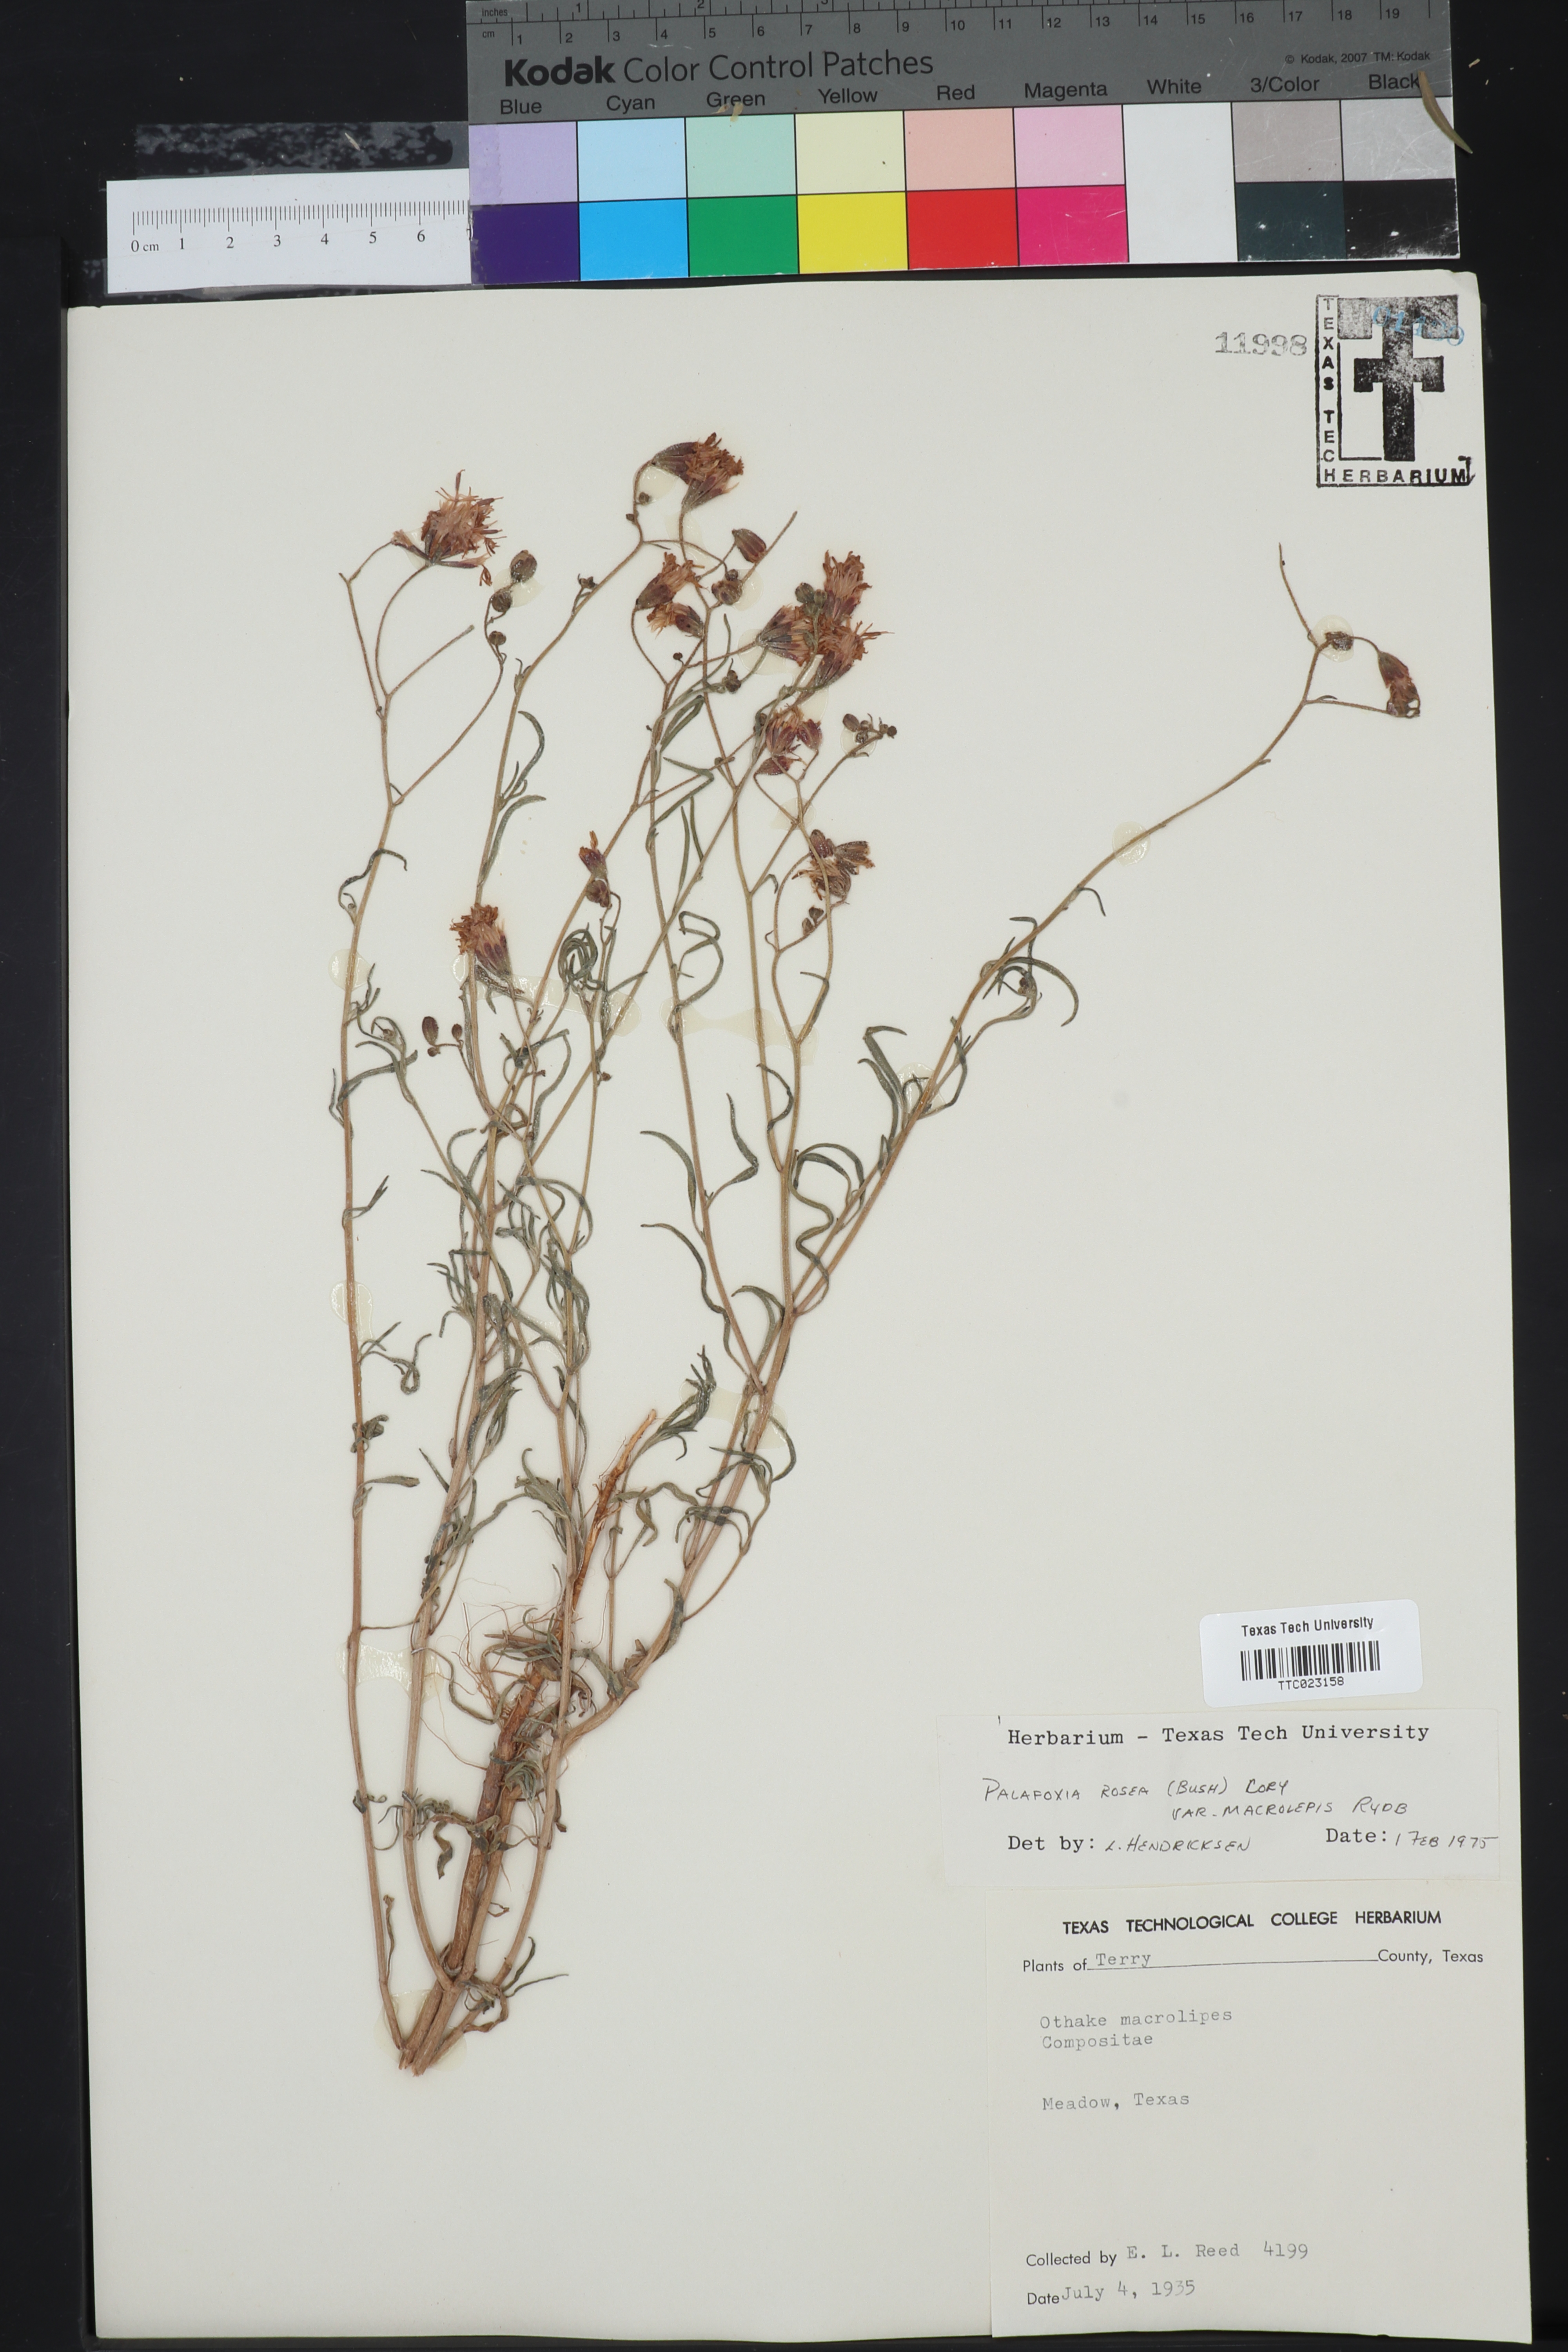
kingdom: Plantae
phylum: Tracheophyta
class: Magnoliopsida
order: Asterales
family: Asteraceae
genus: Palafoxia
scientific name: Palafoxia rosea
